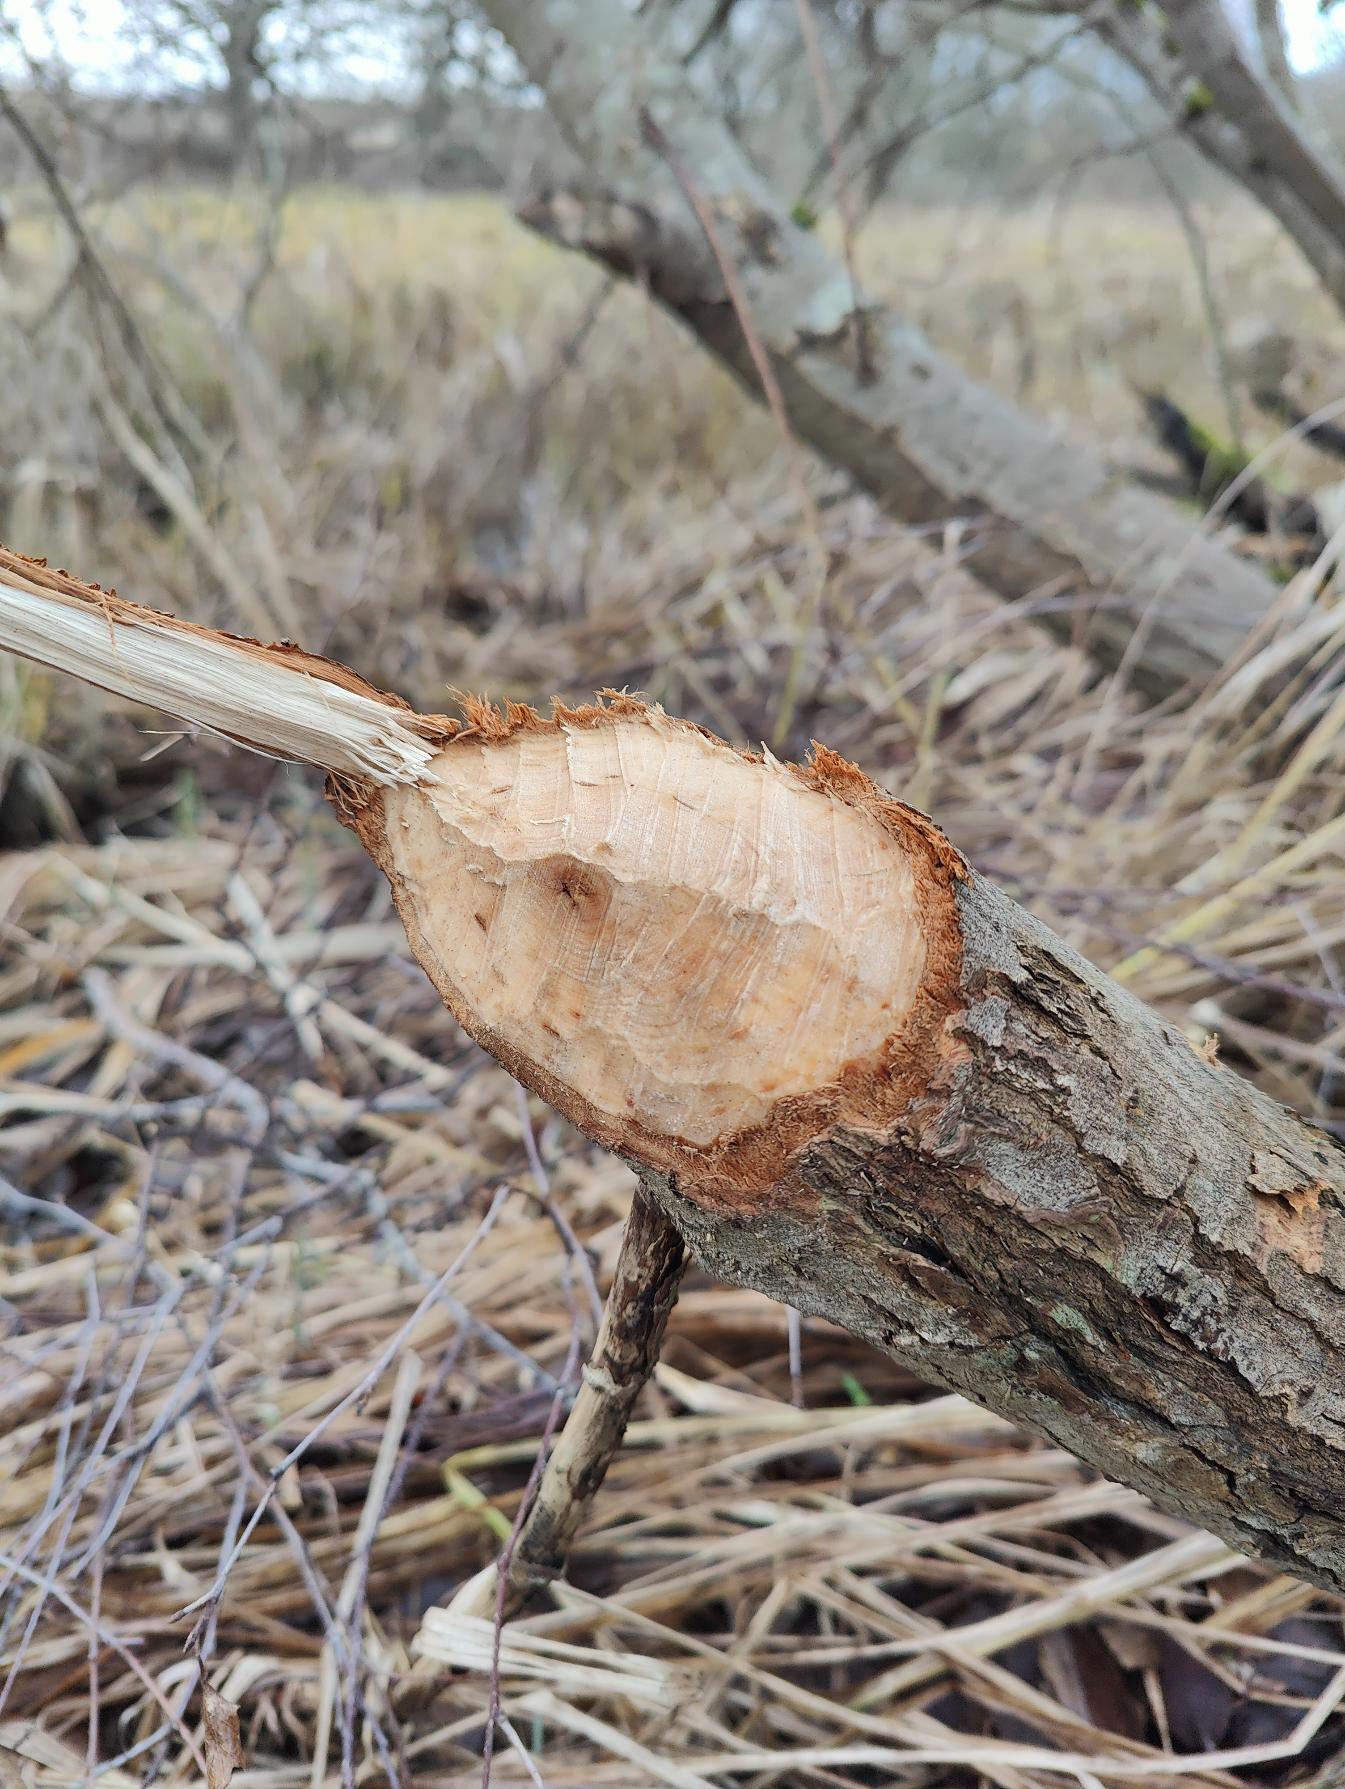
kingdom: Animalia
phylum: Chordata
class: Mammalia
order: Rodentia
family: Castoridae
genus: Castor
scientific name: Castor fiber
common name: Bæver
